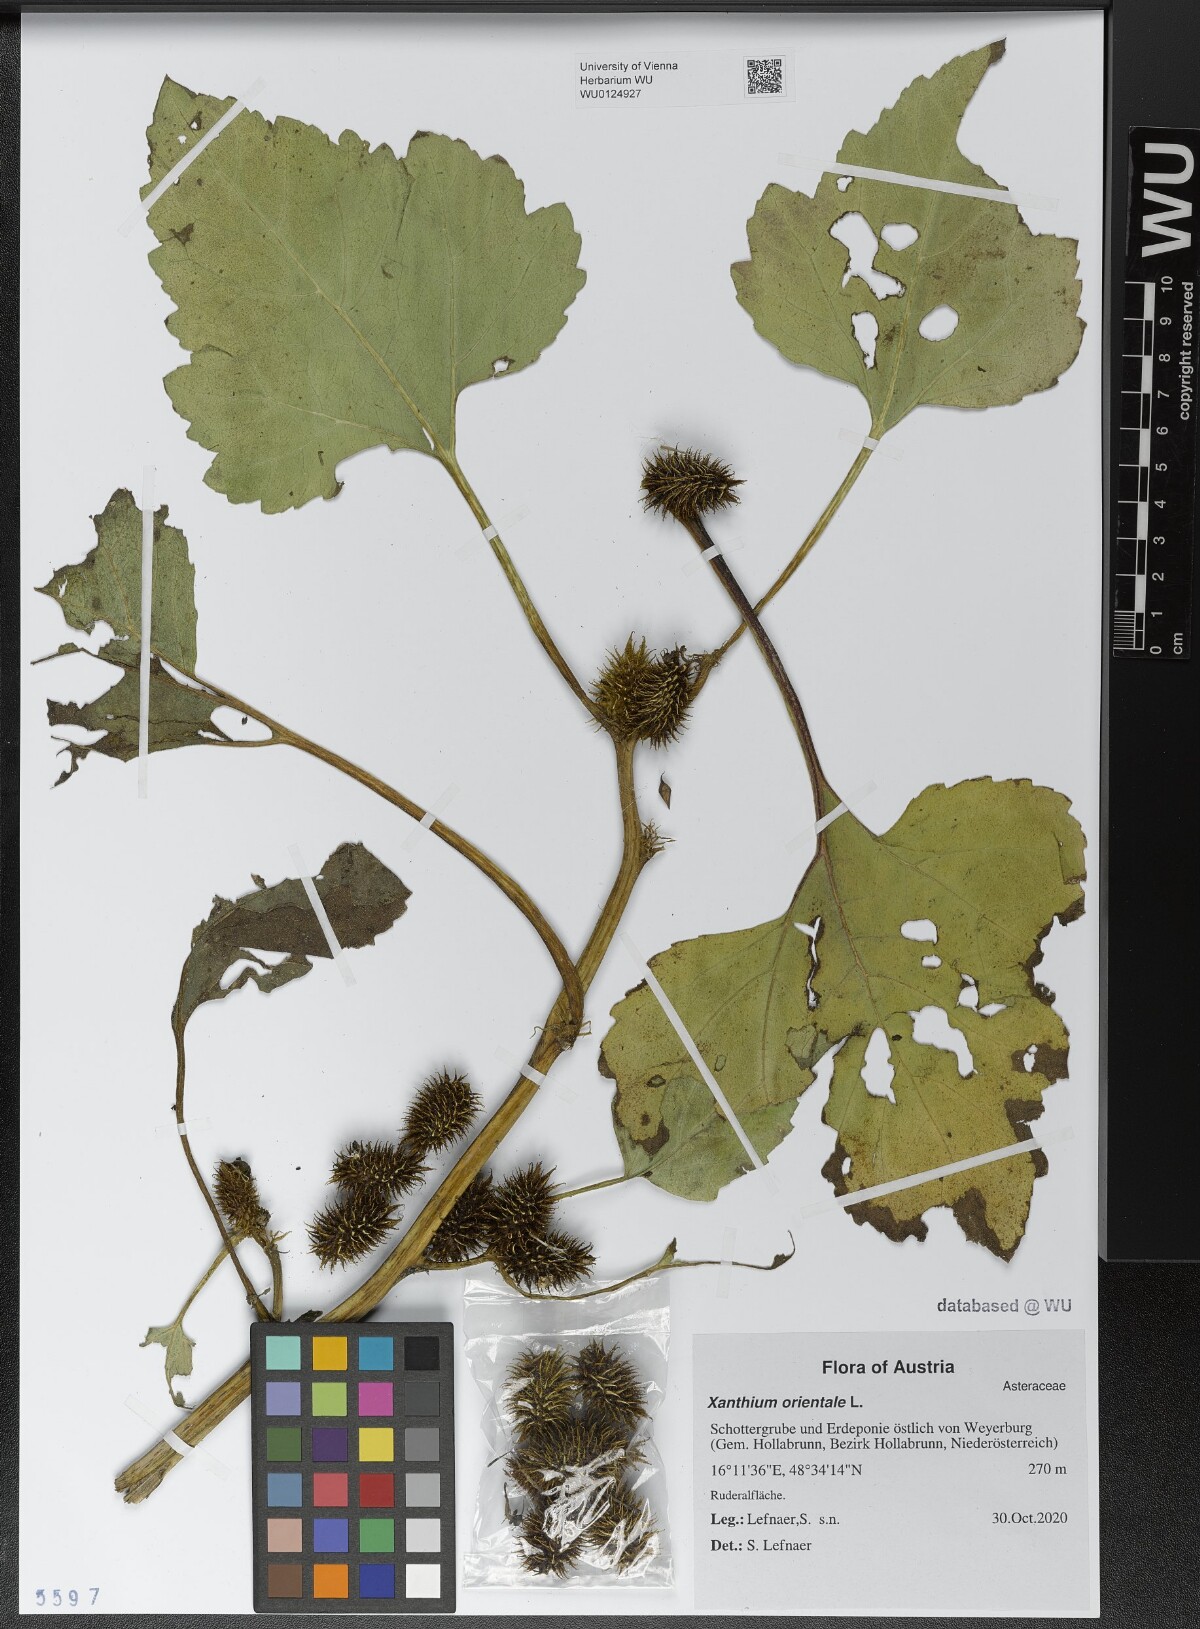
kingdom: Plantae
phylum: Tracheophyta
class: Magnoliopsida
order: Asterales
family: Asteraceae
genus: Xanthium
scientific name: Xanthium orientale
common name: Californian burr
